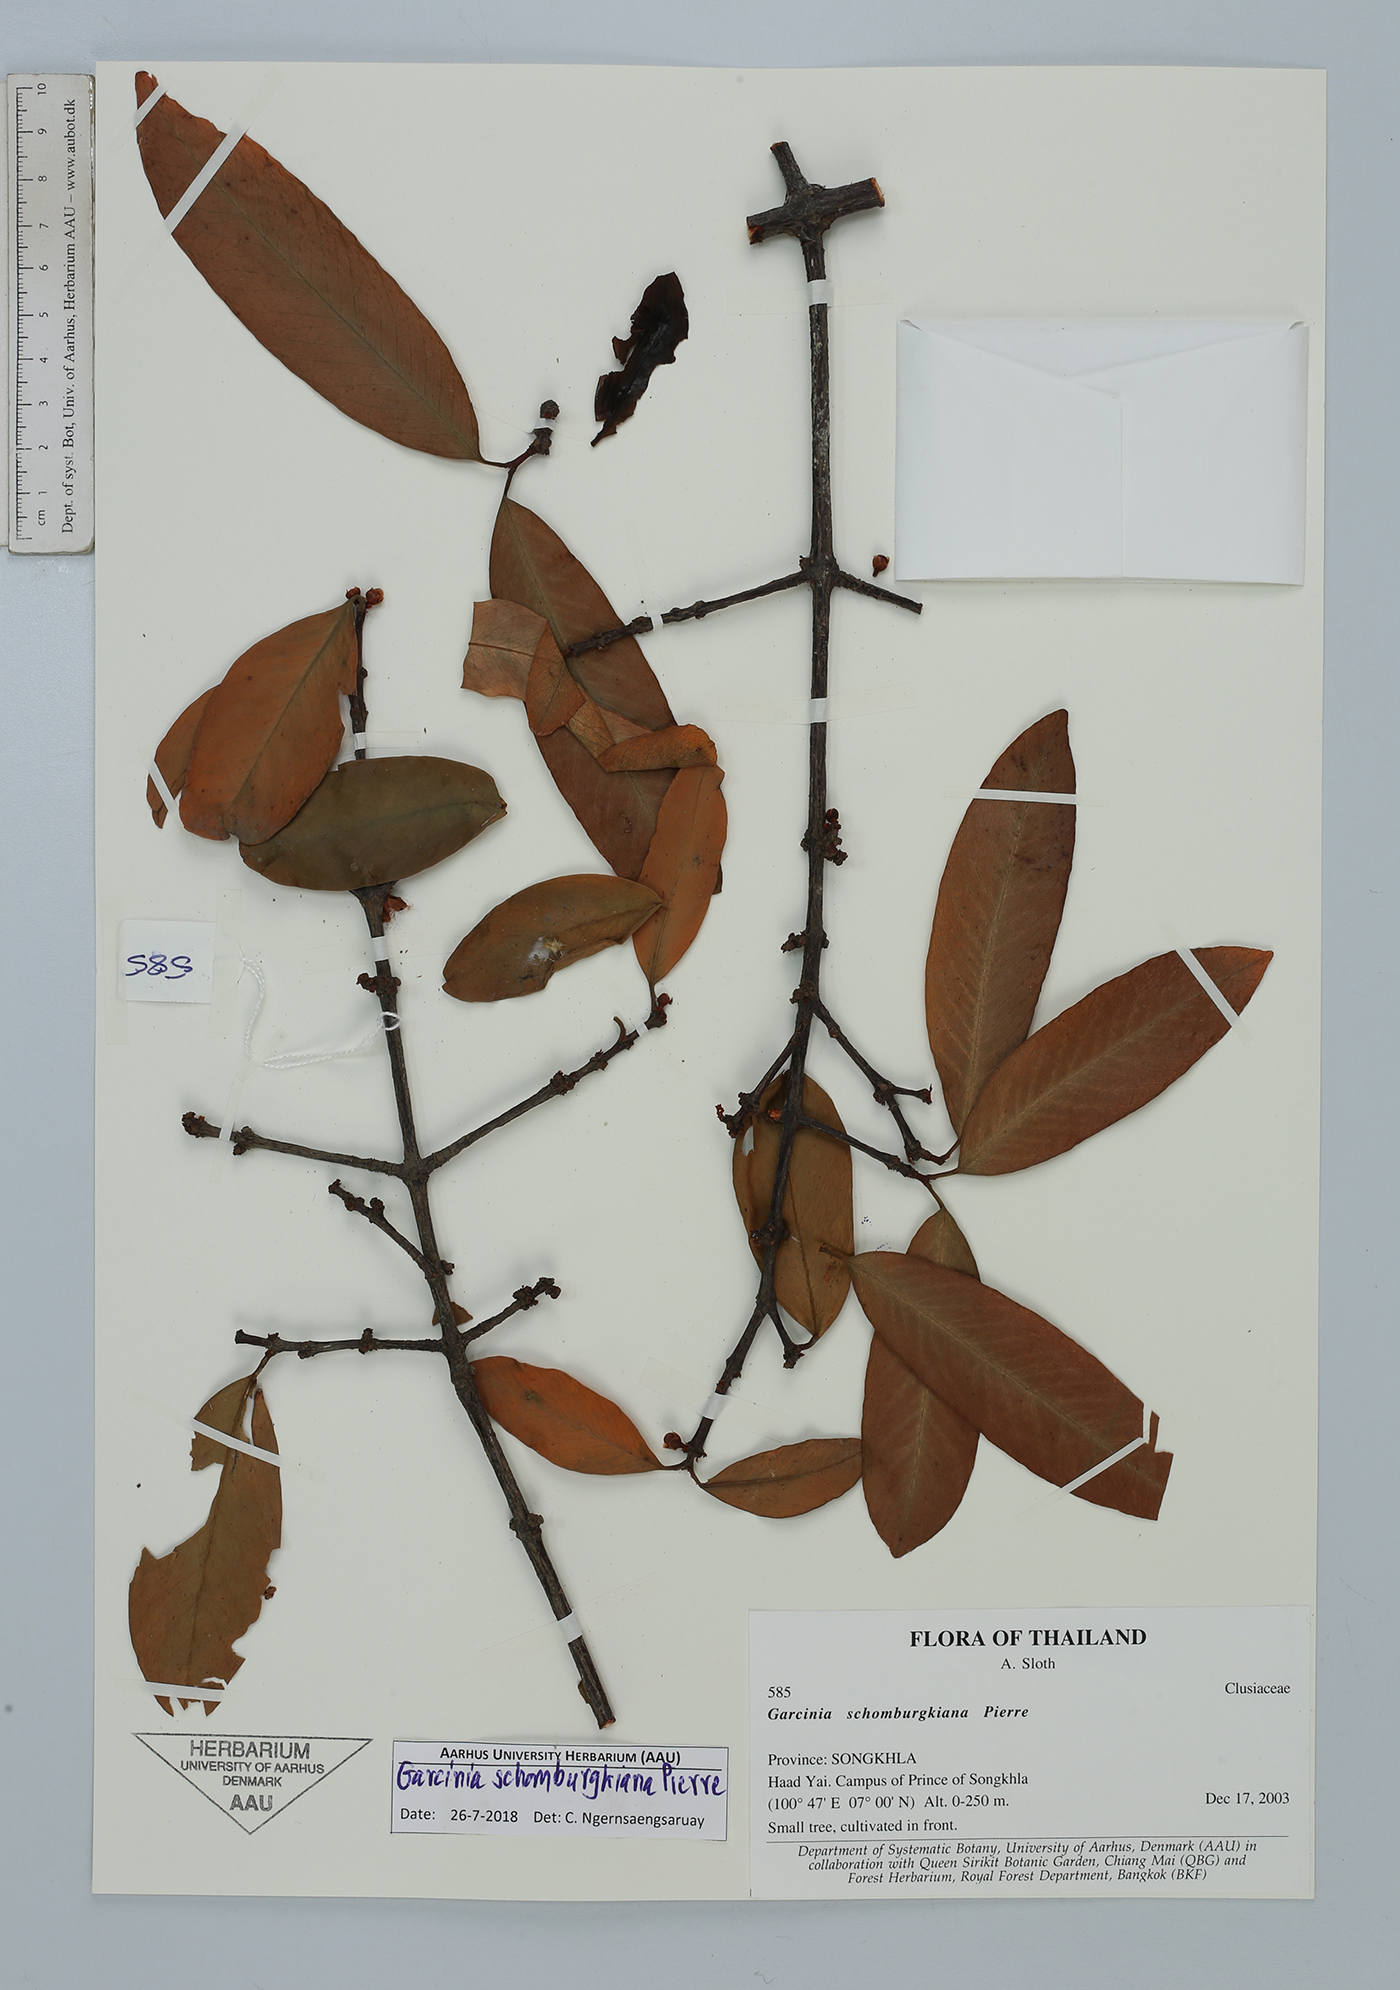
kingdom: Plantae
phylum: Tracheophyta
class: Magnoliopsida
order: Malpighiales
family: Clusiaceae
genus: Garcinia
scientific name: Garcinia schomburgkiana
